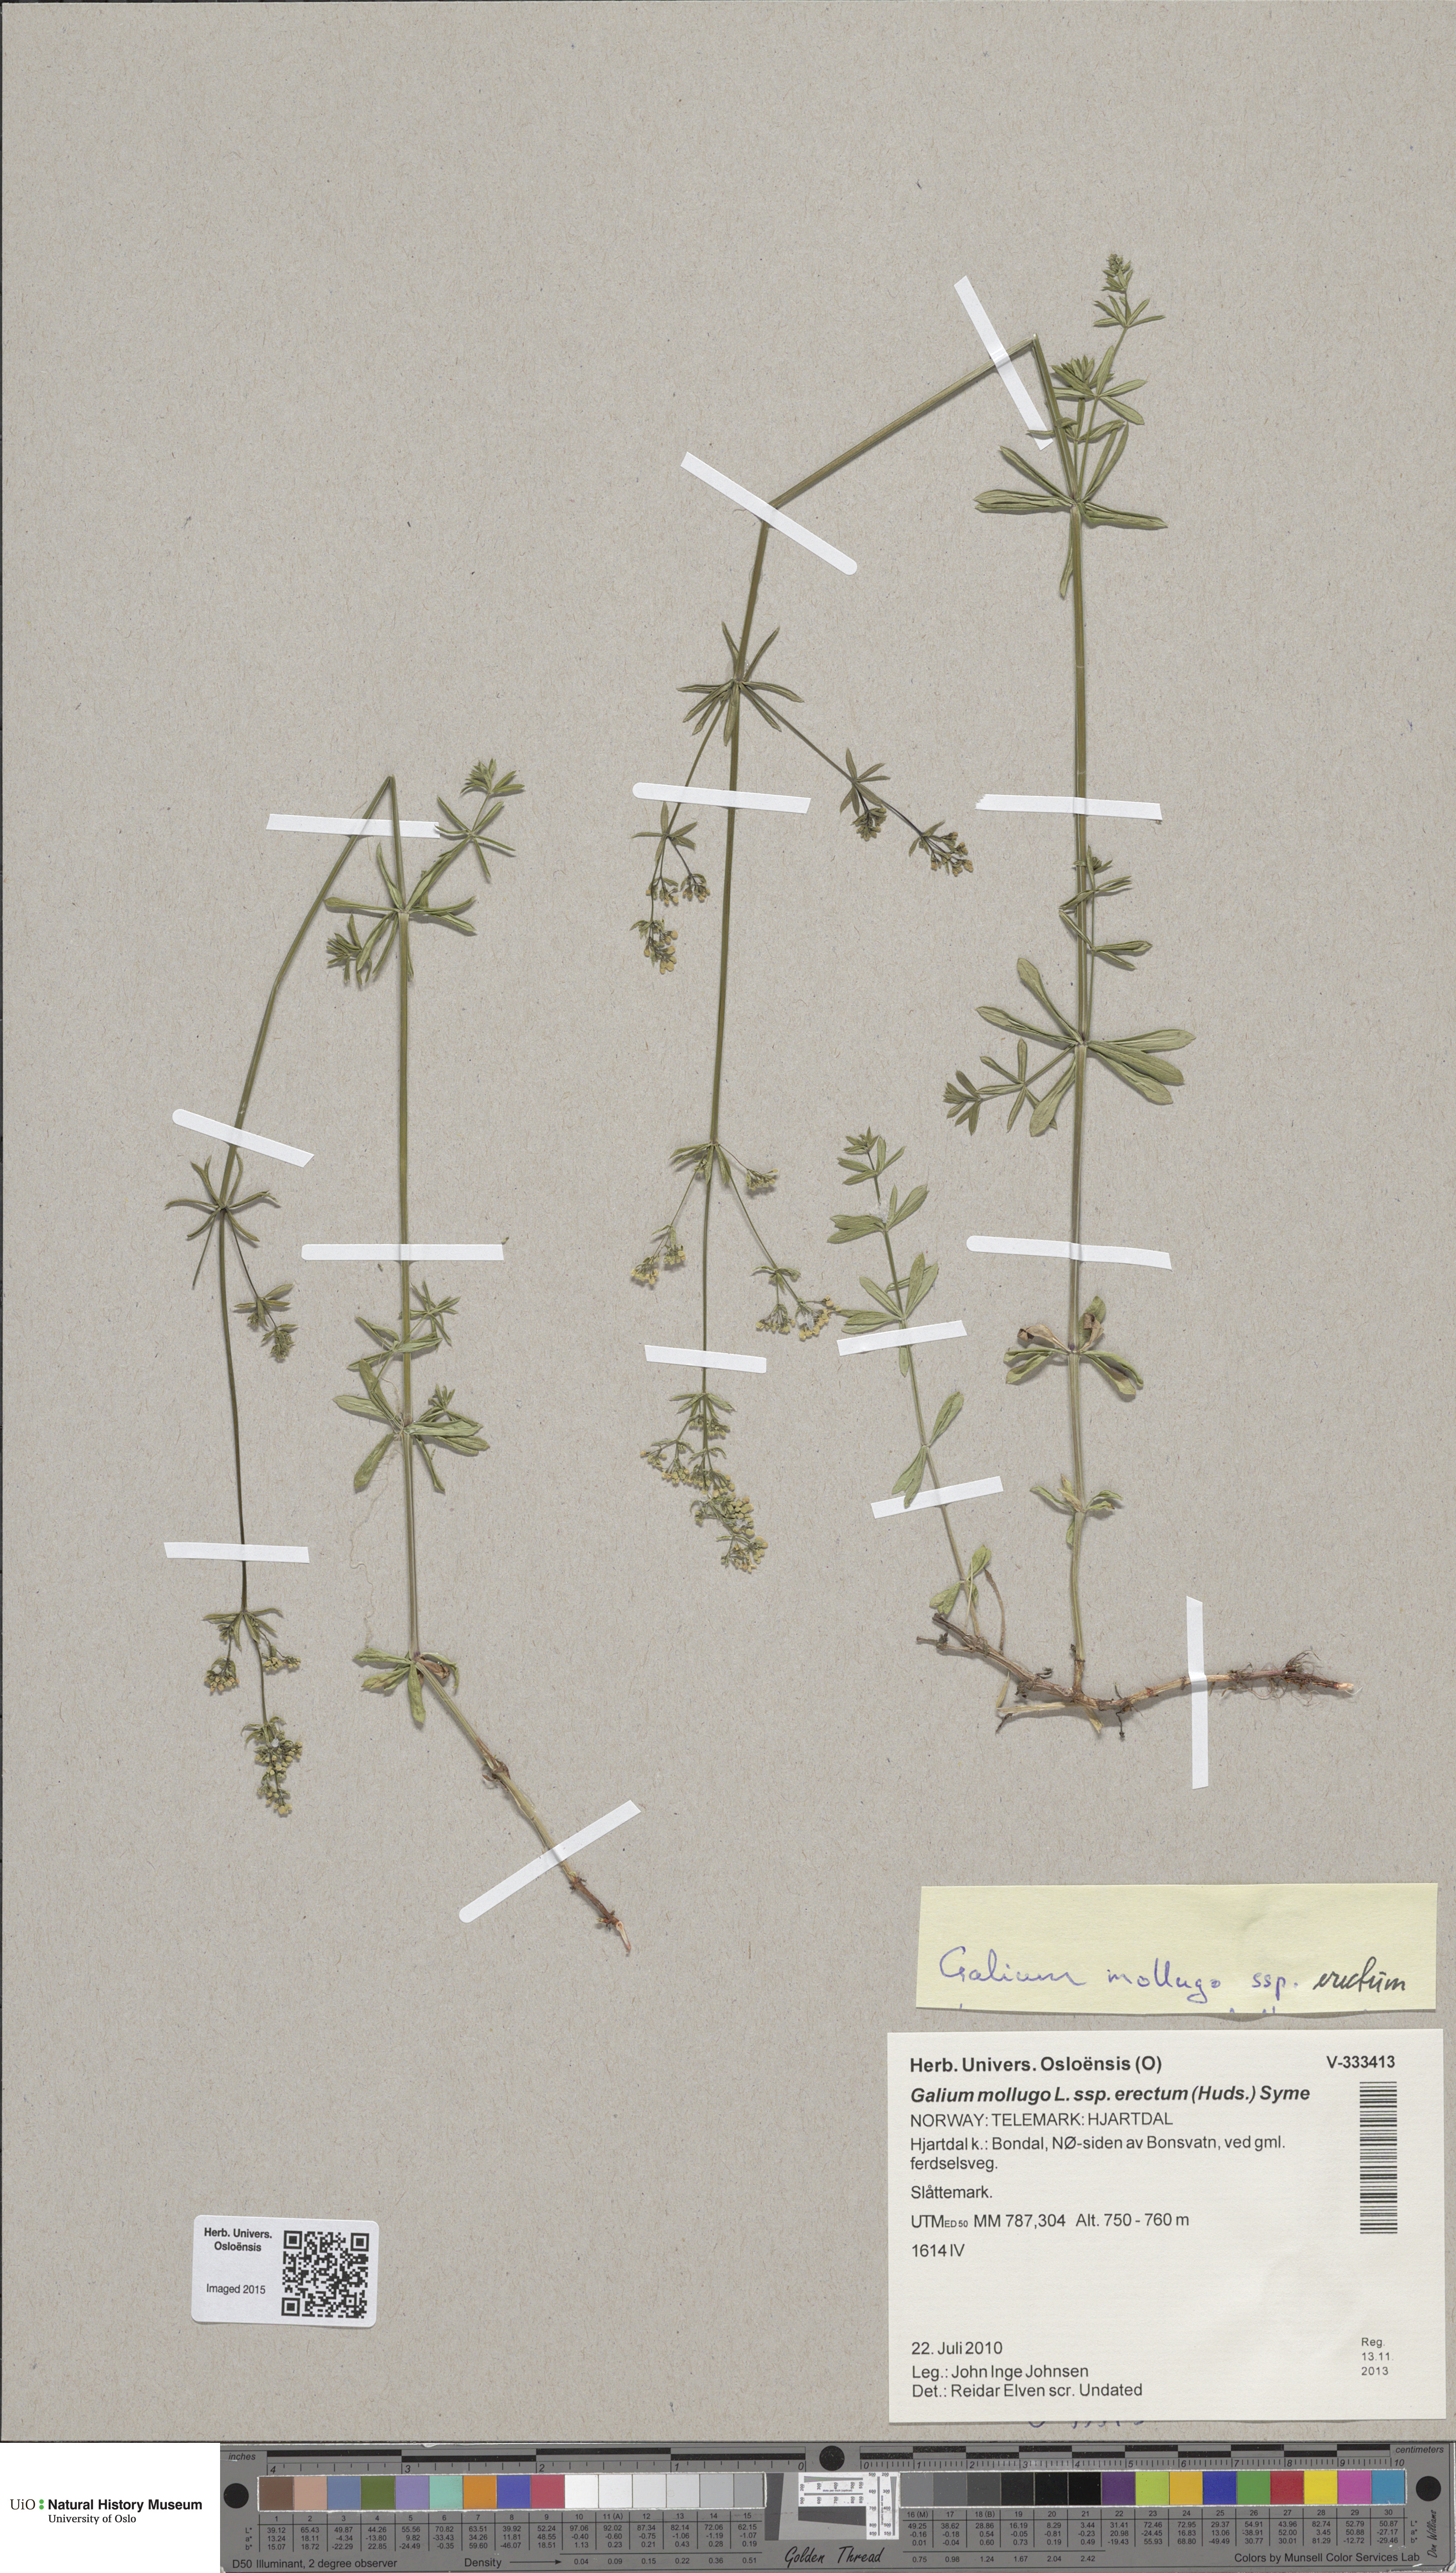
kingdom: Plantae
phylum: Tracheophyta
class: Magnoliopsida
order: Gentianales
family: Rubiaceae
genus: Galium
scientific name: Galium album
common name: White bedstraw
